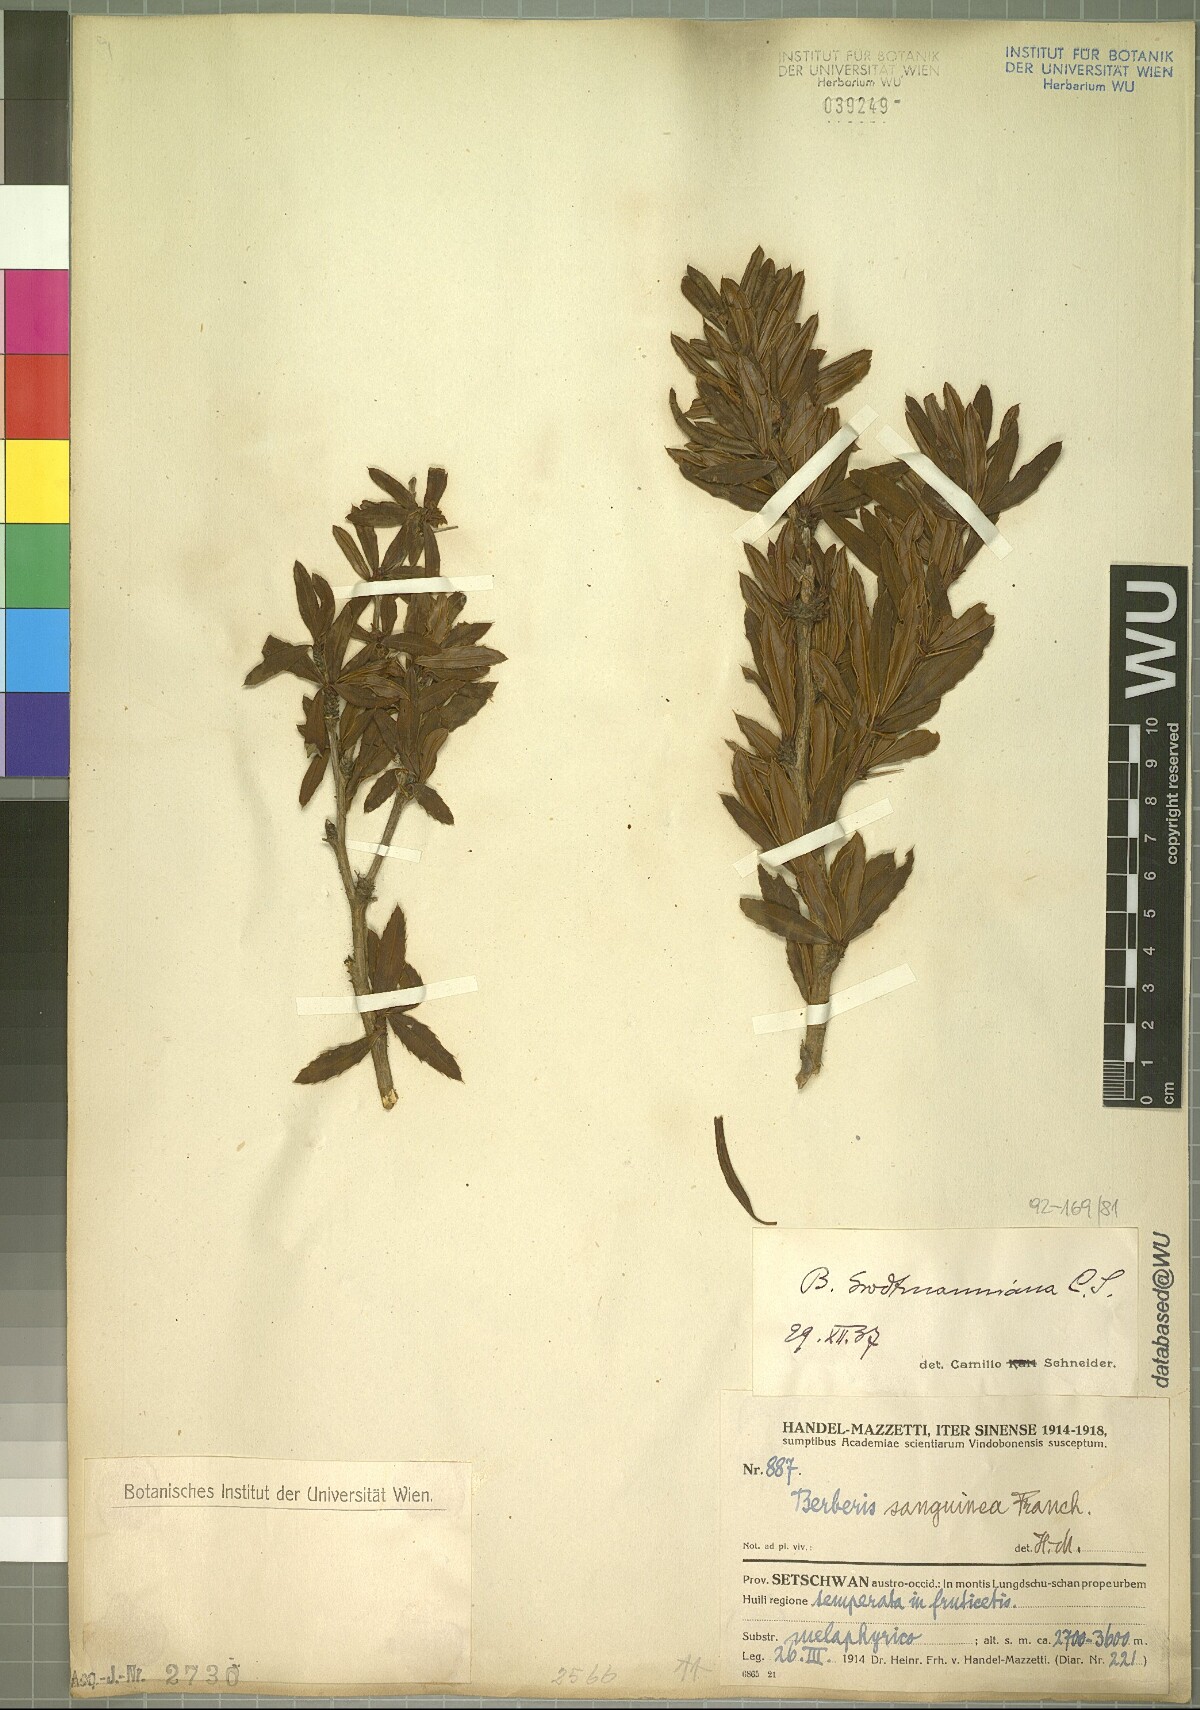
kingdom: Plantae
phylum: Tracheophyta
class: Magnoliopsida
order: Ranunculales
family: Berberidaceae
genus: Berberis
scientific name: Berberis grodtmanniana
